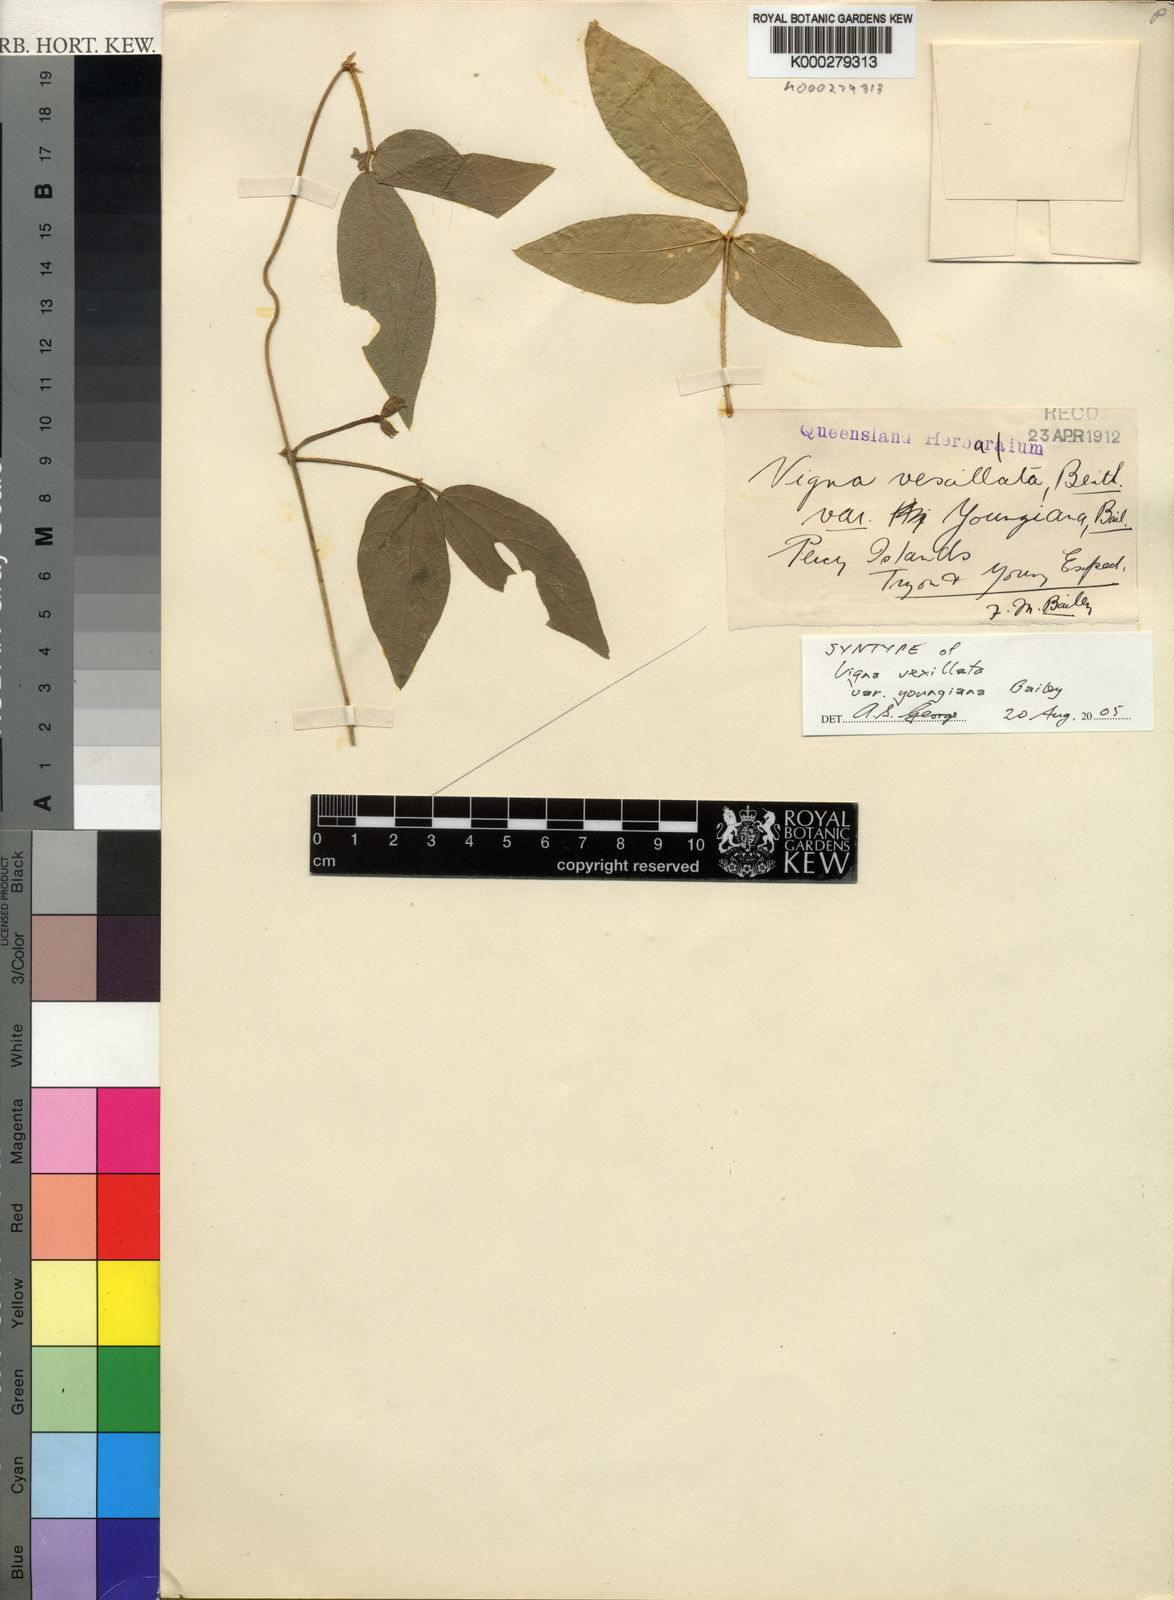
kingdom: Plantae
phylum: Tracheophyta
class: Magnoliopsida
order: Fabales
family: Fabaceae
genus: Vigna
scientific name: Vigna vexillata
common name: Zombi pea
